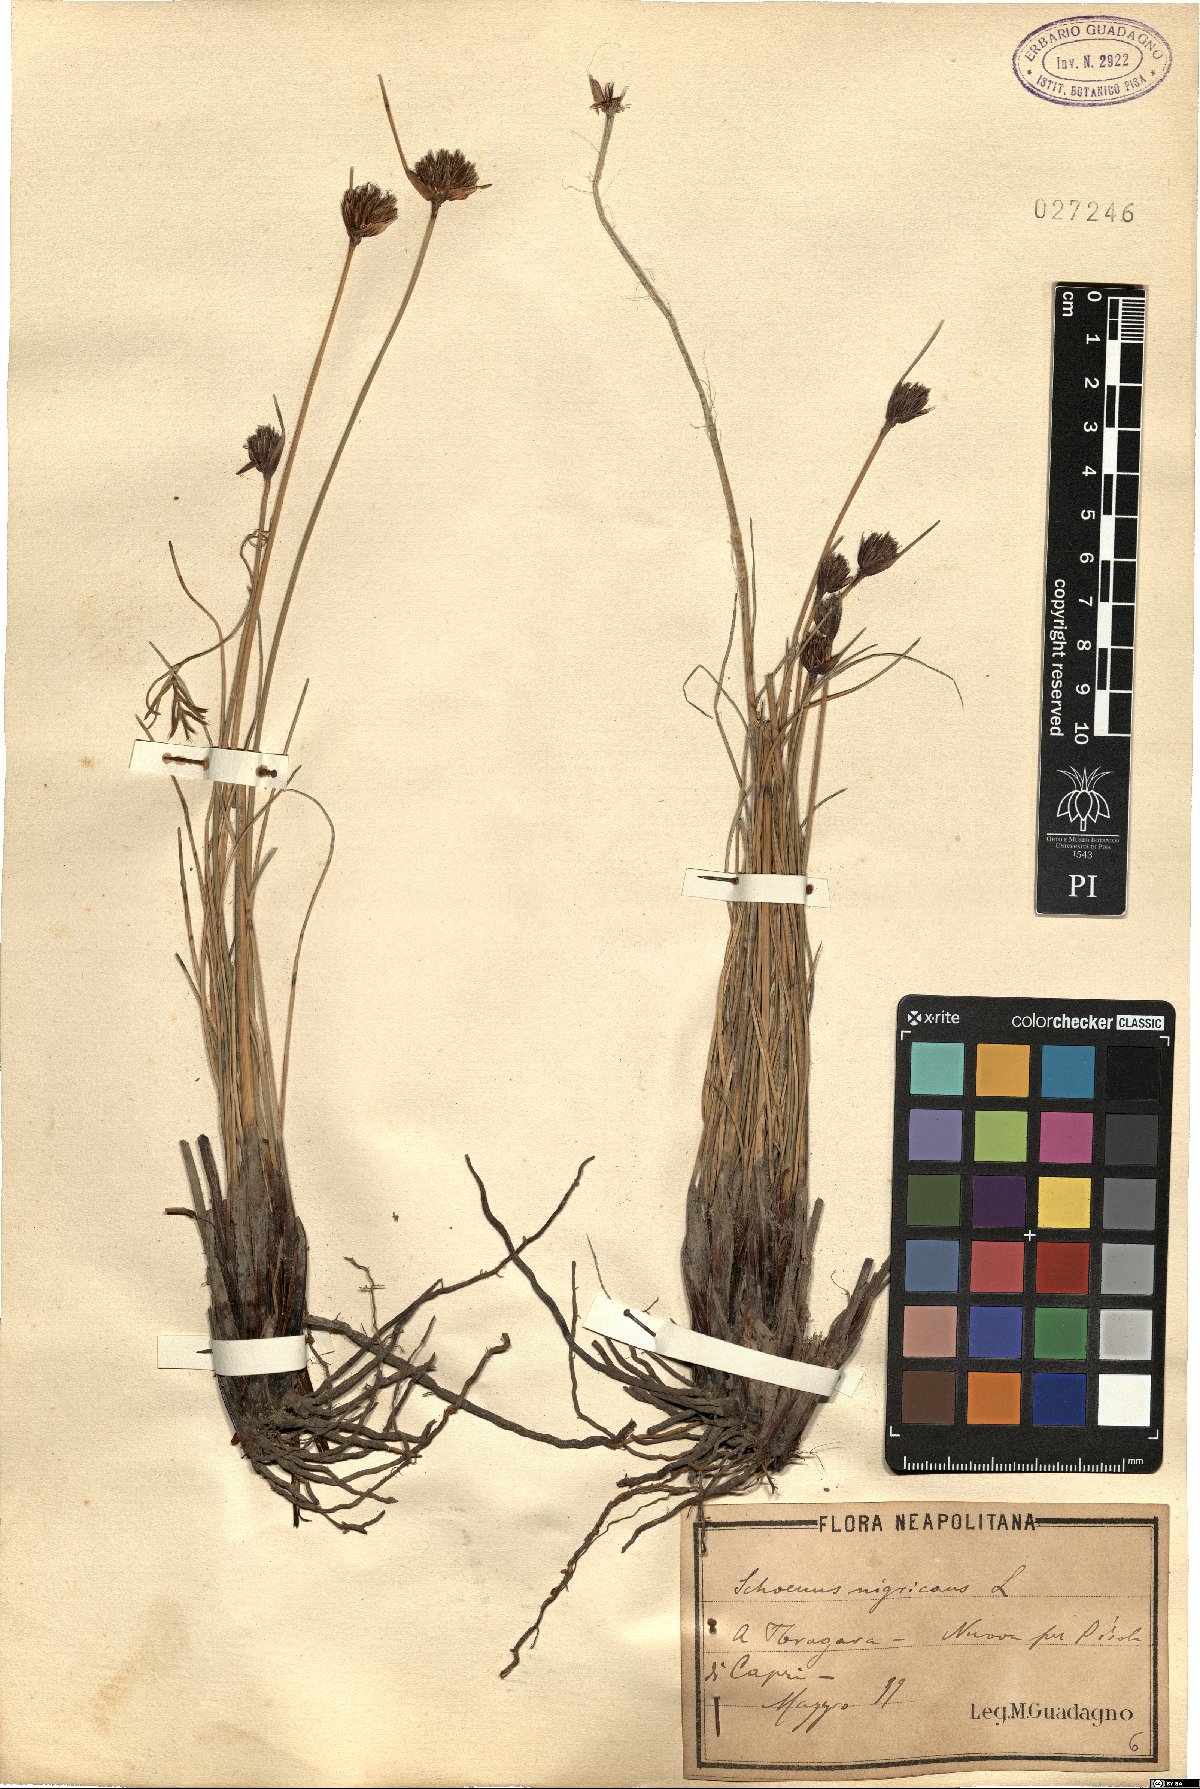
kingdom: Plantae
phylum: Tracheophyta
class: Liliopsida
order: Poales
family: Cyperaceae
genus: Schoenus
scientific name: Schoenus nigricans
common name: Black bog-rush
